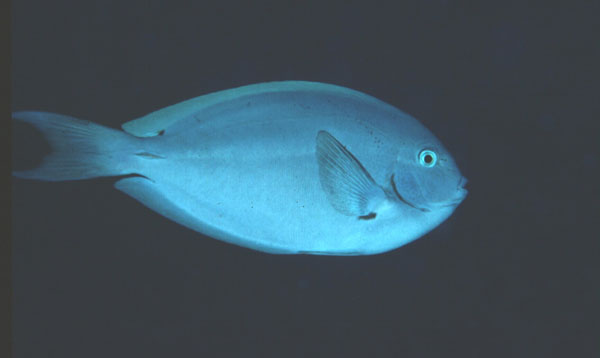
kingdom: Animalia
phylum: Chordata
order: Perciformes
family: Acanthuridae
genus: Acanthurus
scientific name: Acanthurus thompsoni
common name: Chocolate surgeonfish
